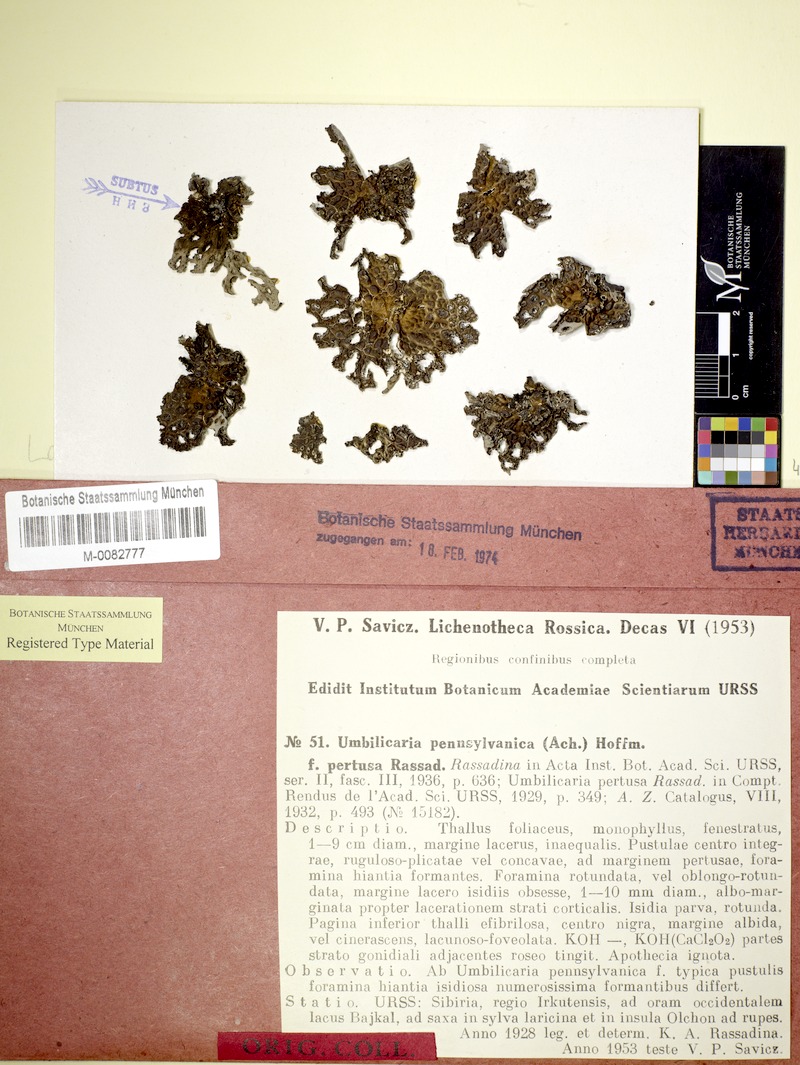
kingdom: Fungi
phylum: Ascomycota
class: Lecanoromycetes
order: Umbilicariales
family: Umbilicariaceae
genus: Lasallia
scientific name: Lasallia pertusa
